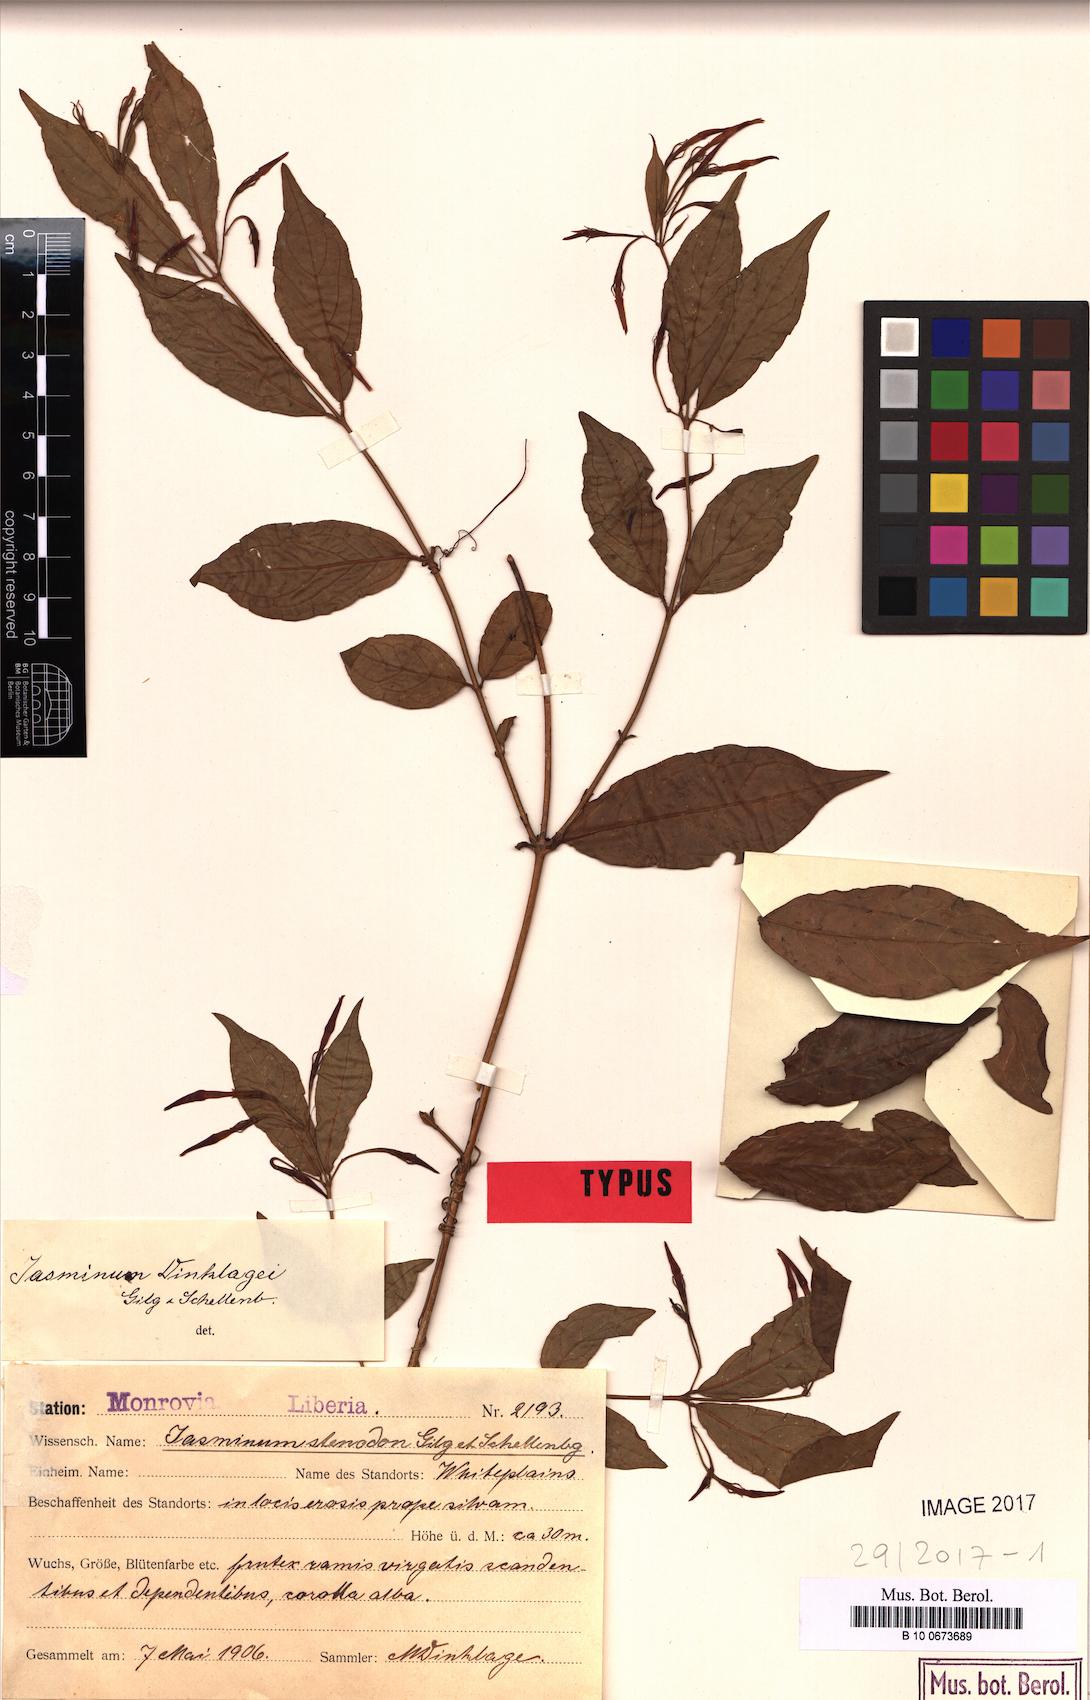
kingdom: Plantae
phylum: Tracheophyta
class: Magnoliopsida
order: Lamiales
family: Oleaceae
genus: Jasminum
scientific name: Jasminum dinklagei
